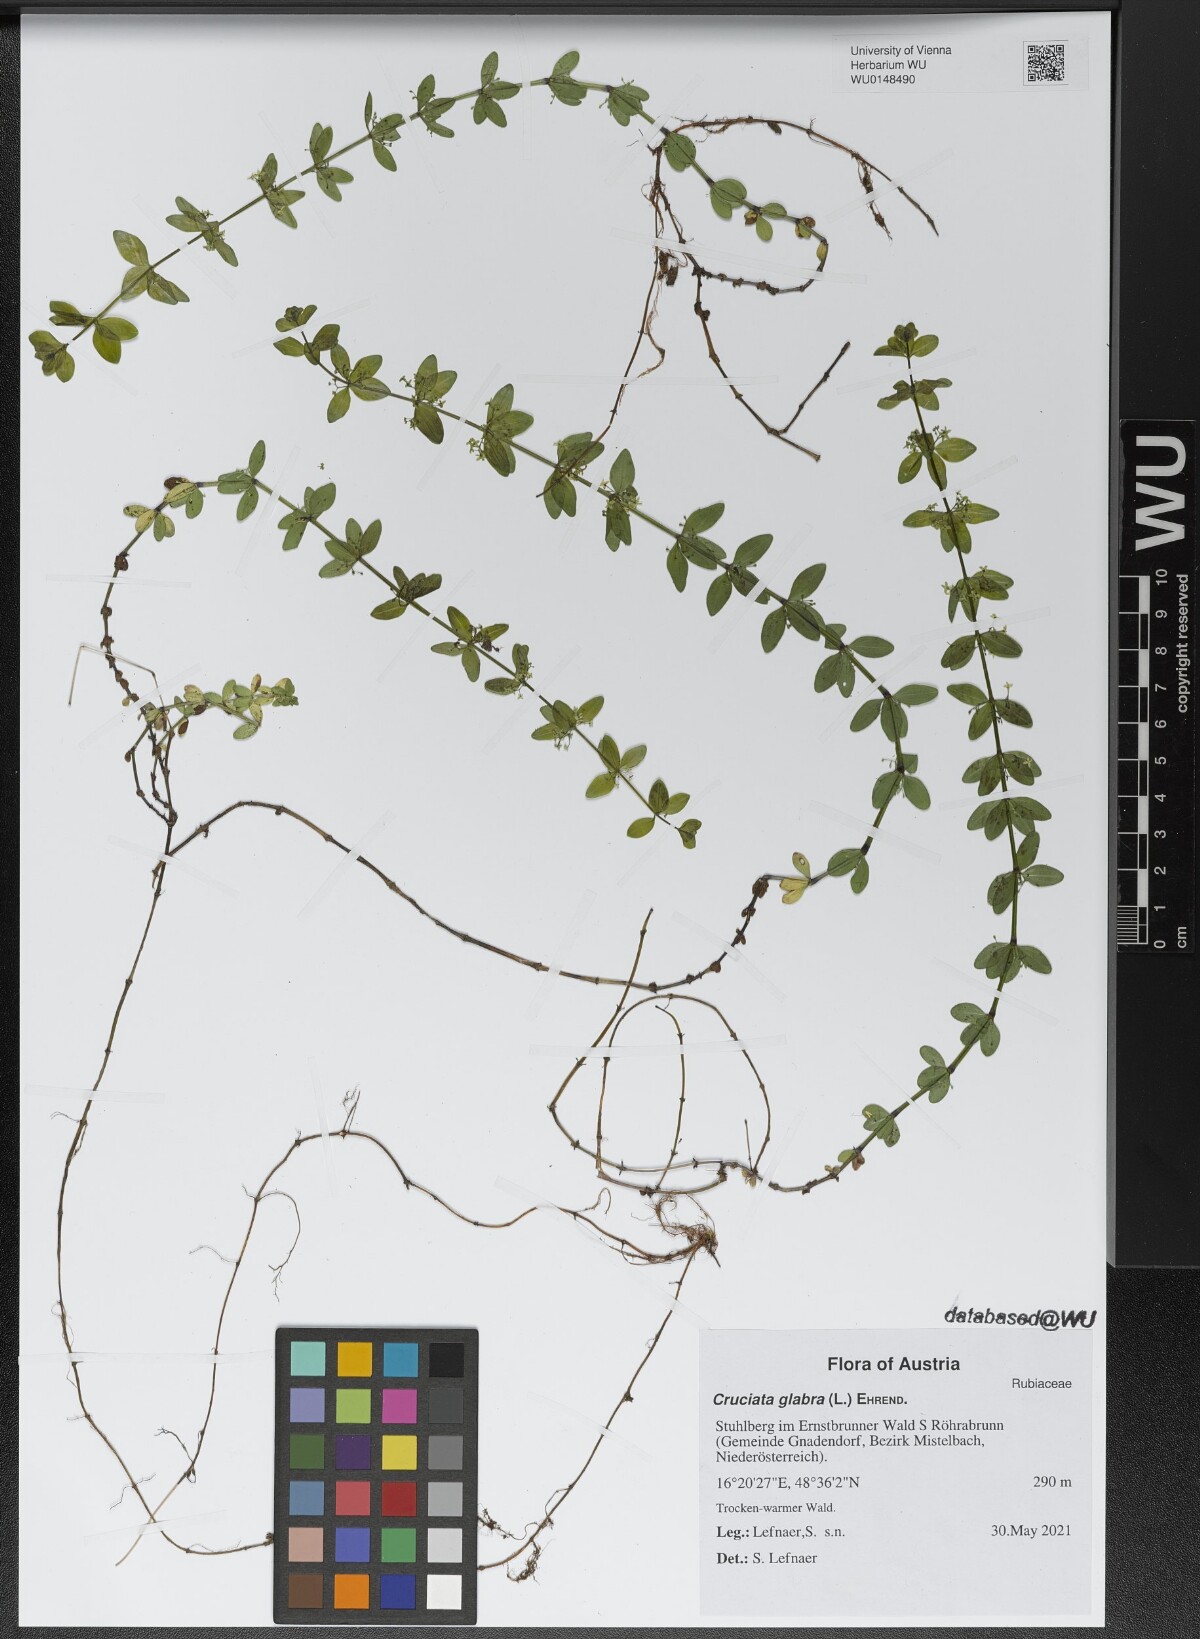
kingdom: Plantae
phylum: Tracheophyta
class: Magnoliopsida
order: Gentianales
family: Rubiaceae
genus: Cruciata
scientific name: Cruciata glabra
